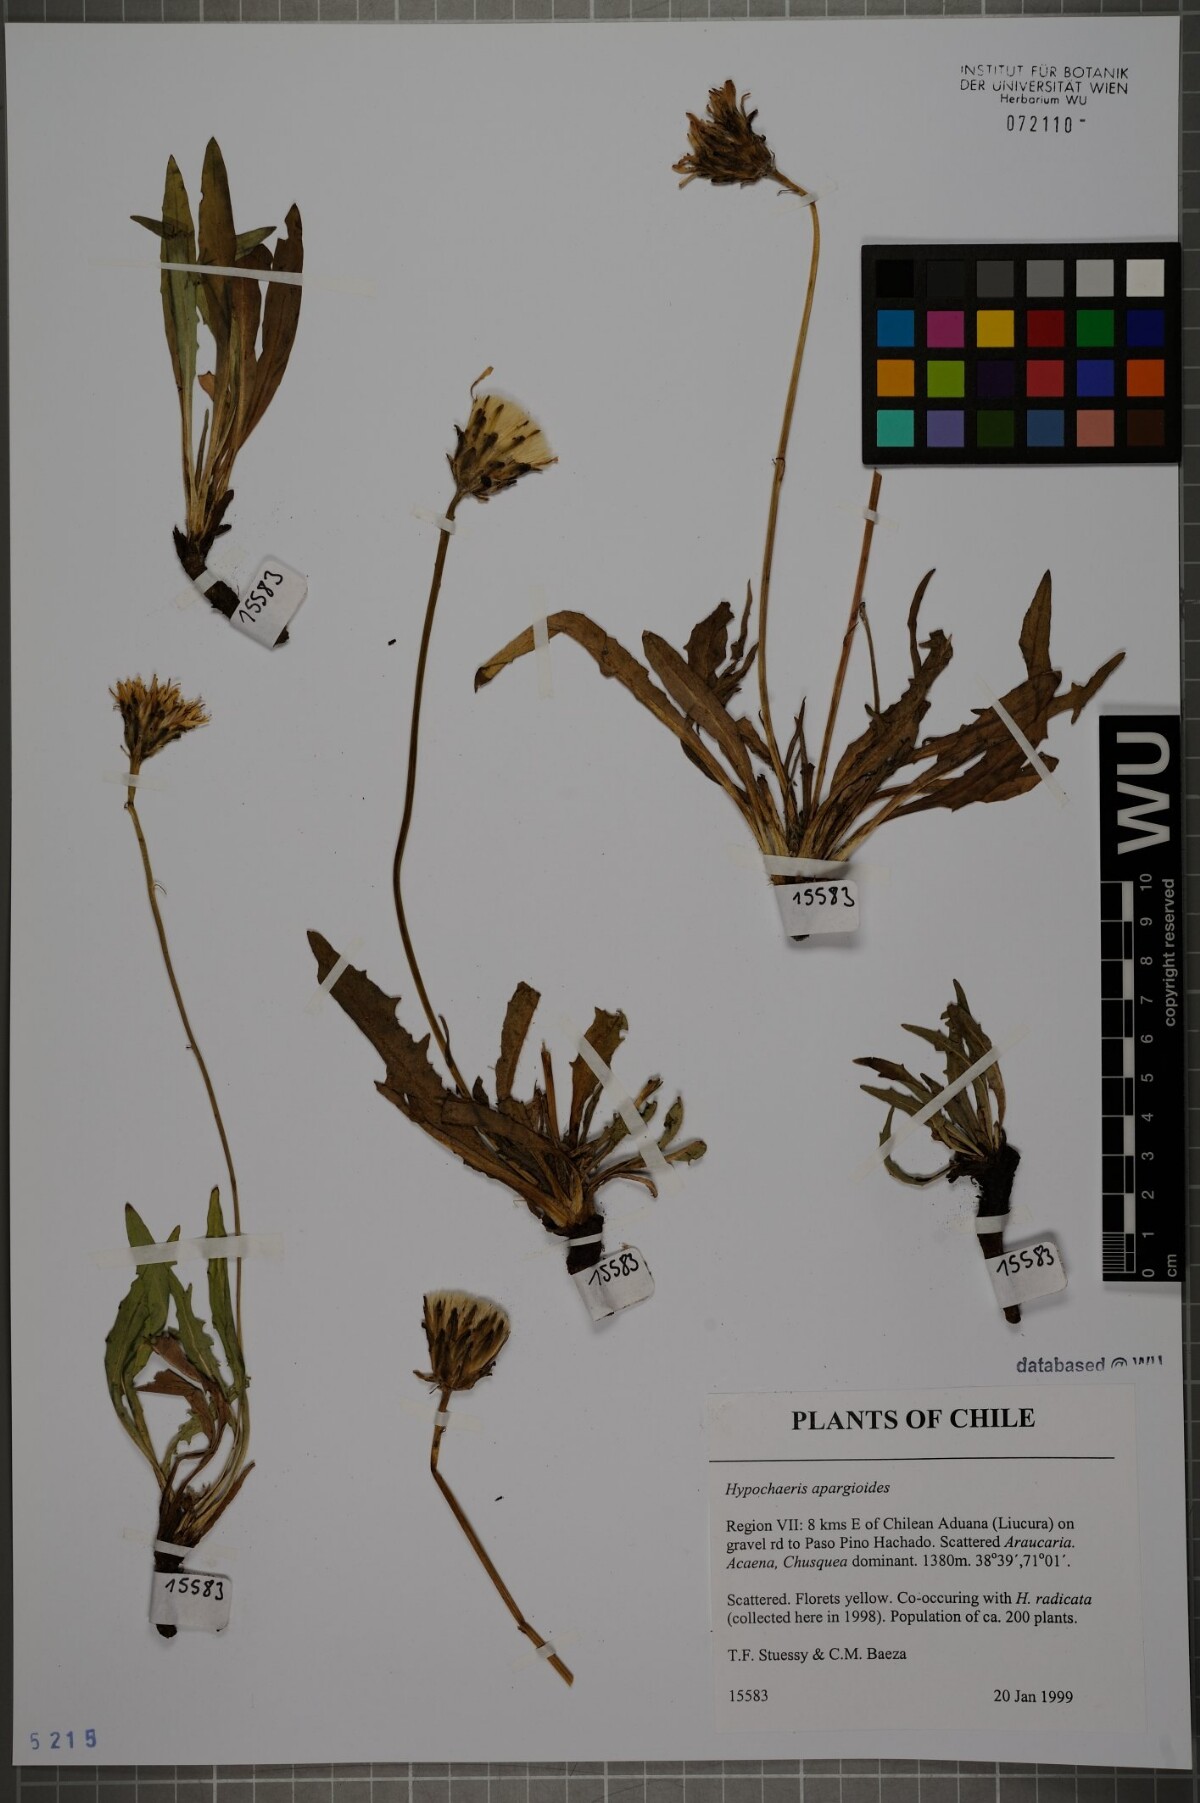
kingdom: Plantae
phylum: Tracheophyta
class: Magnoliopsida
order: Asterales
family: Asteraceae
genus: Hypochaeris
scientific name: Hypochaeris apargioides
